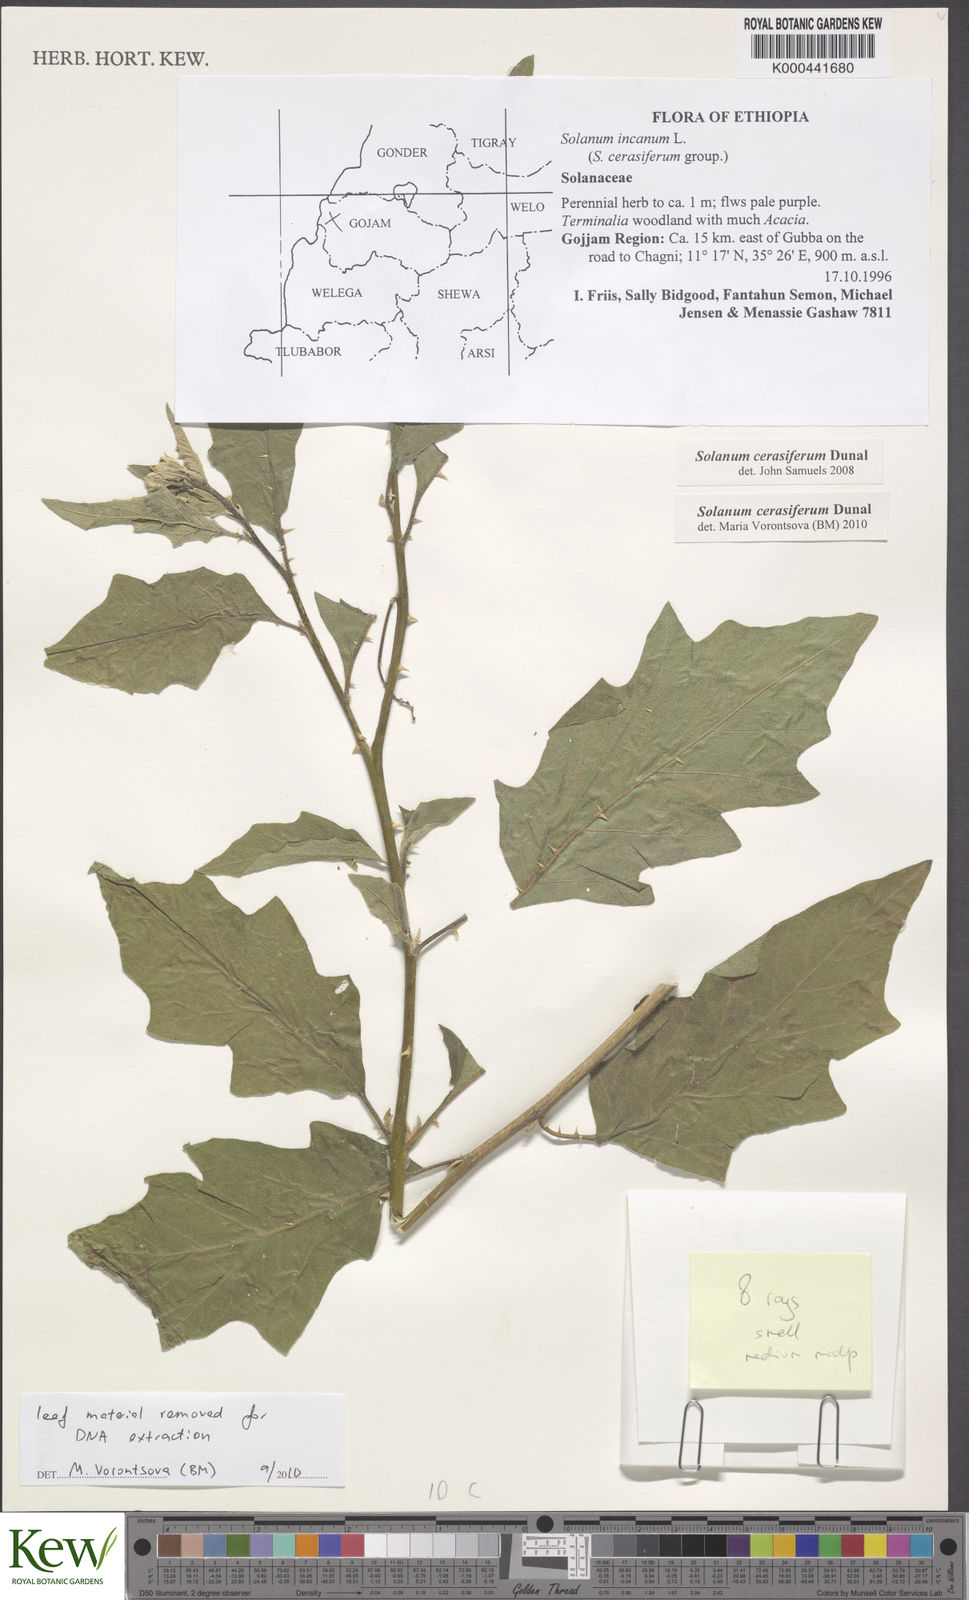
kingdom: Plantae
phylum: Tracheophyta
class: Magnoliopsida
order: Solanales
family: Solanaceae
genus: Solanum
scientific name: Solanum cerasiferum
